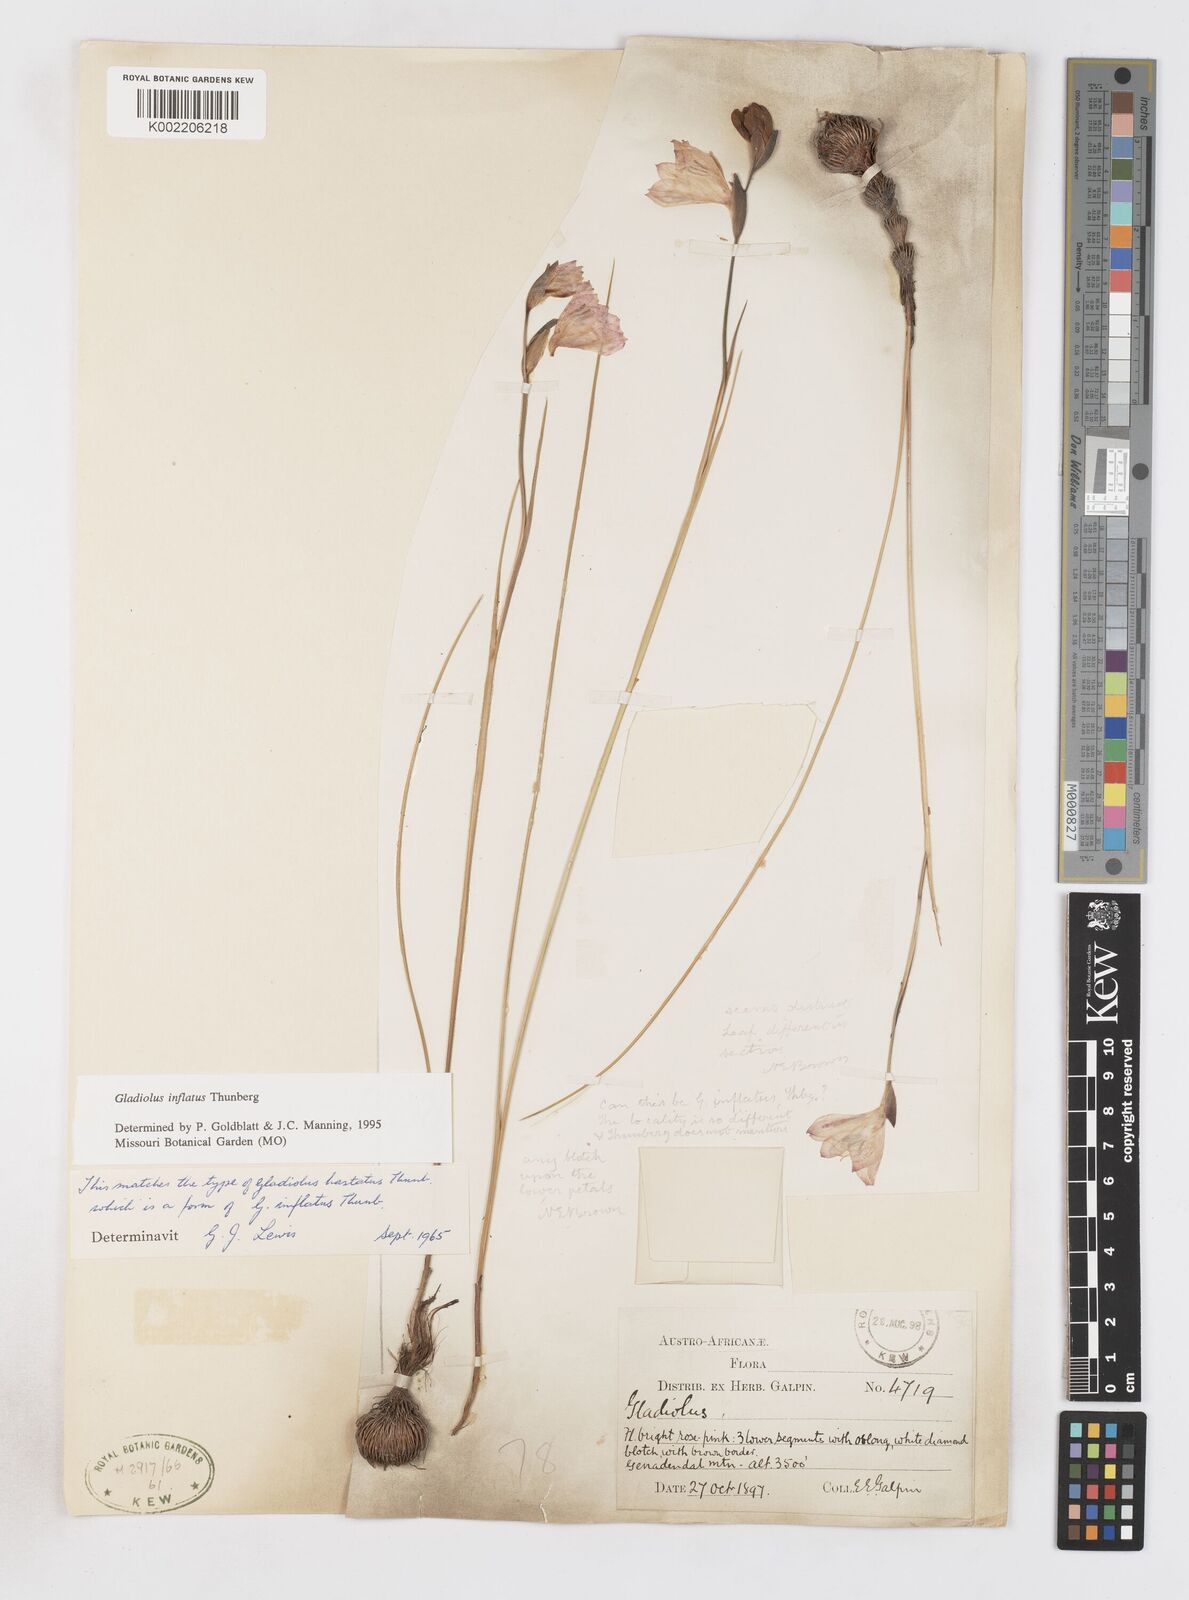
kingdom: Plantae
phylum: Tracheophyta
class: Liliopsida
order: Asparagales
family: Iridaceae
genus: Gladiolus
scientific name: Gladiolus inflatus
